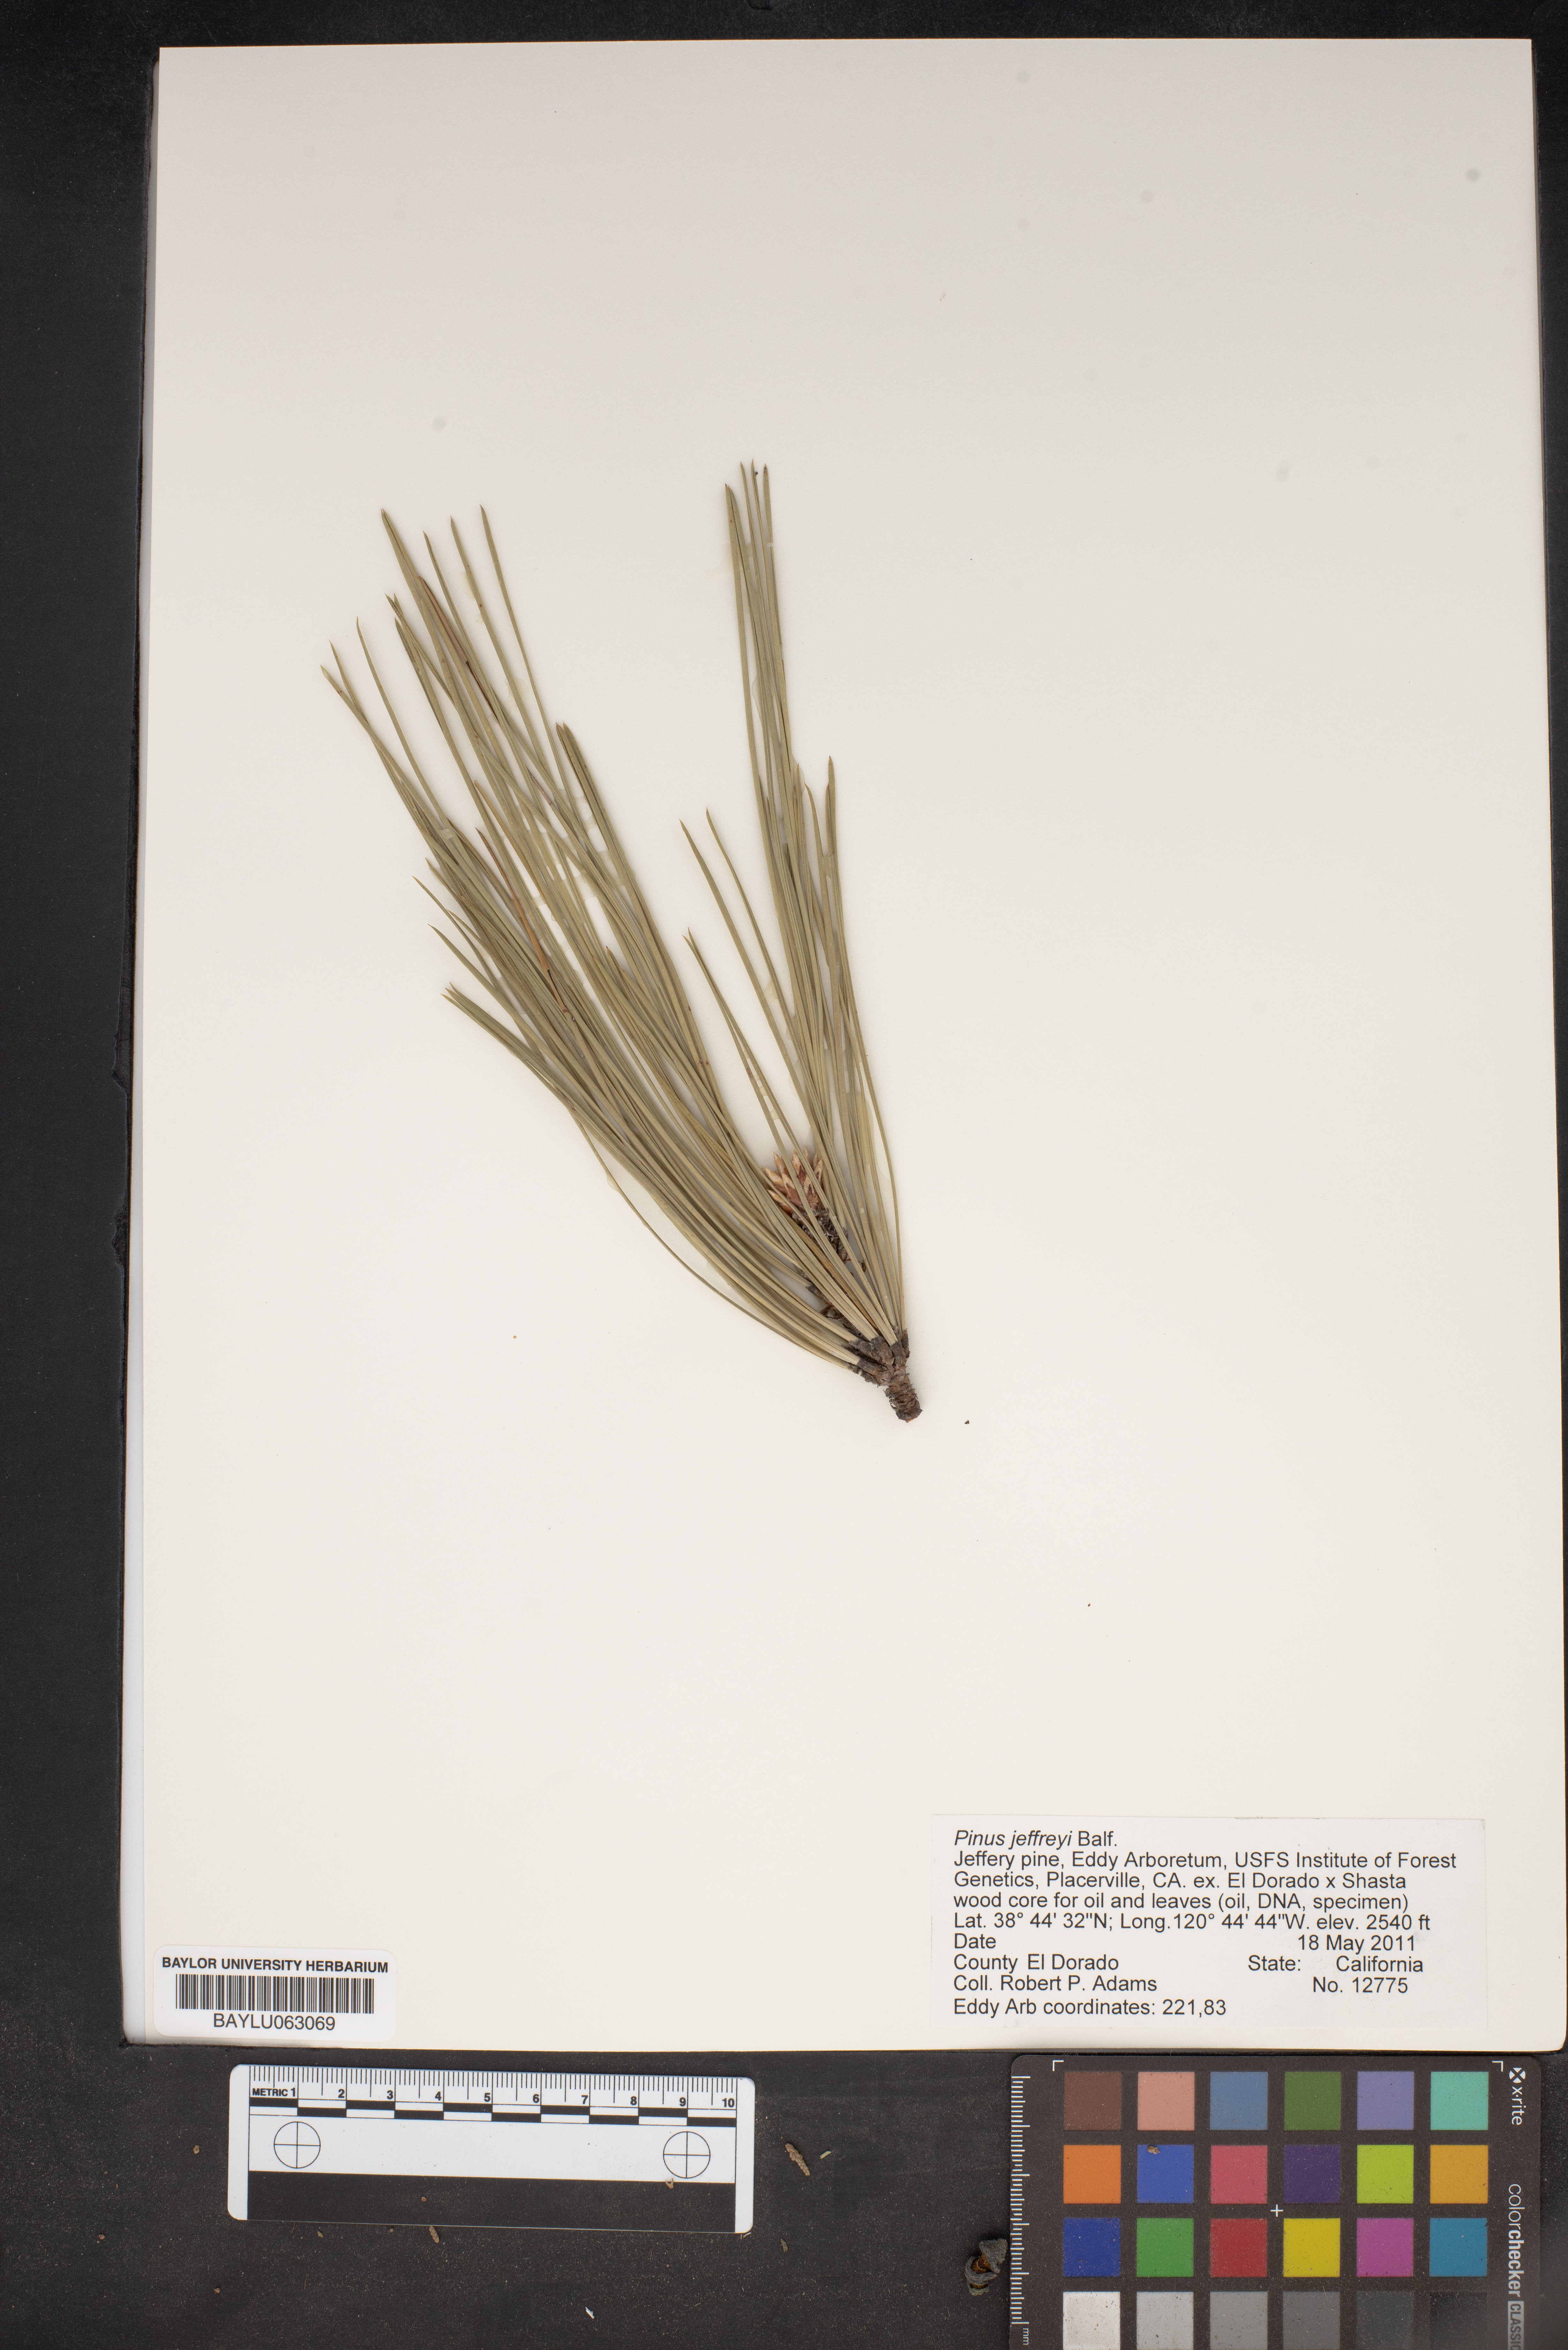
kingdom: Plantae
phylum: Tracheophyta
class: Pinopsida
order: Pinales
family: Pinaceae
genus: Pinus
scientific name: Pinus jeffreyi
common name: Jeffrey pine
